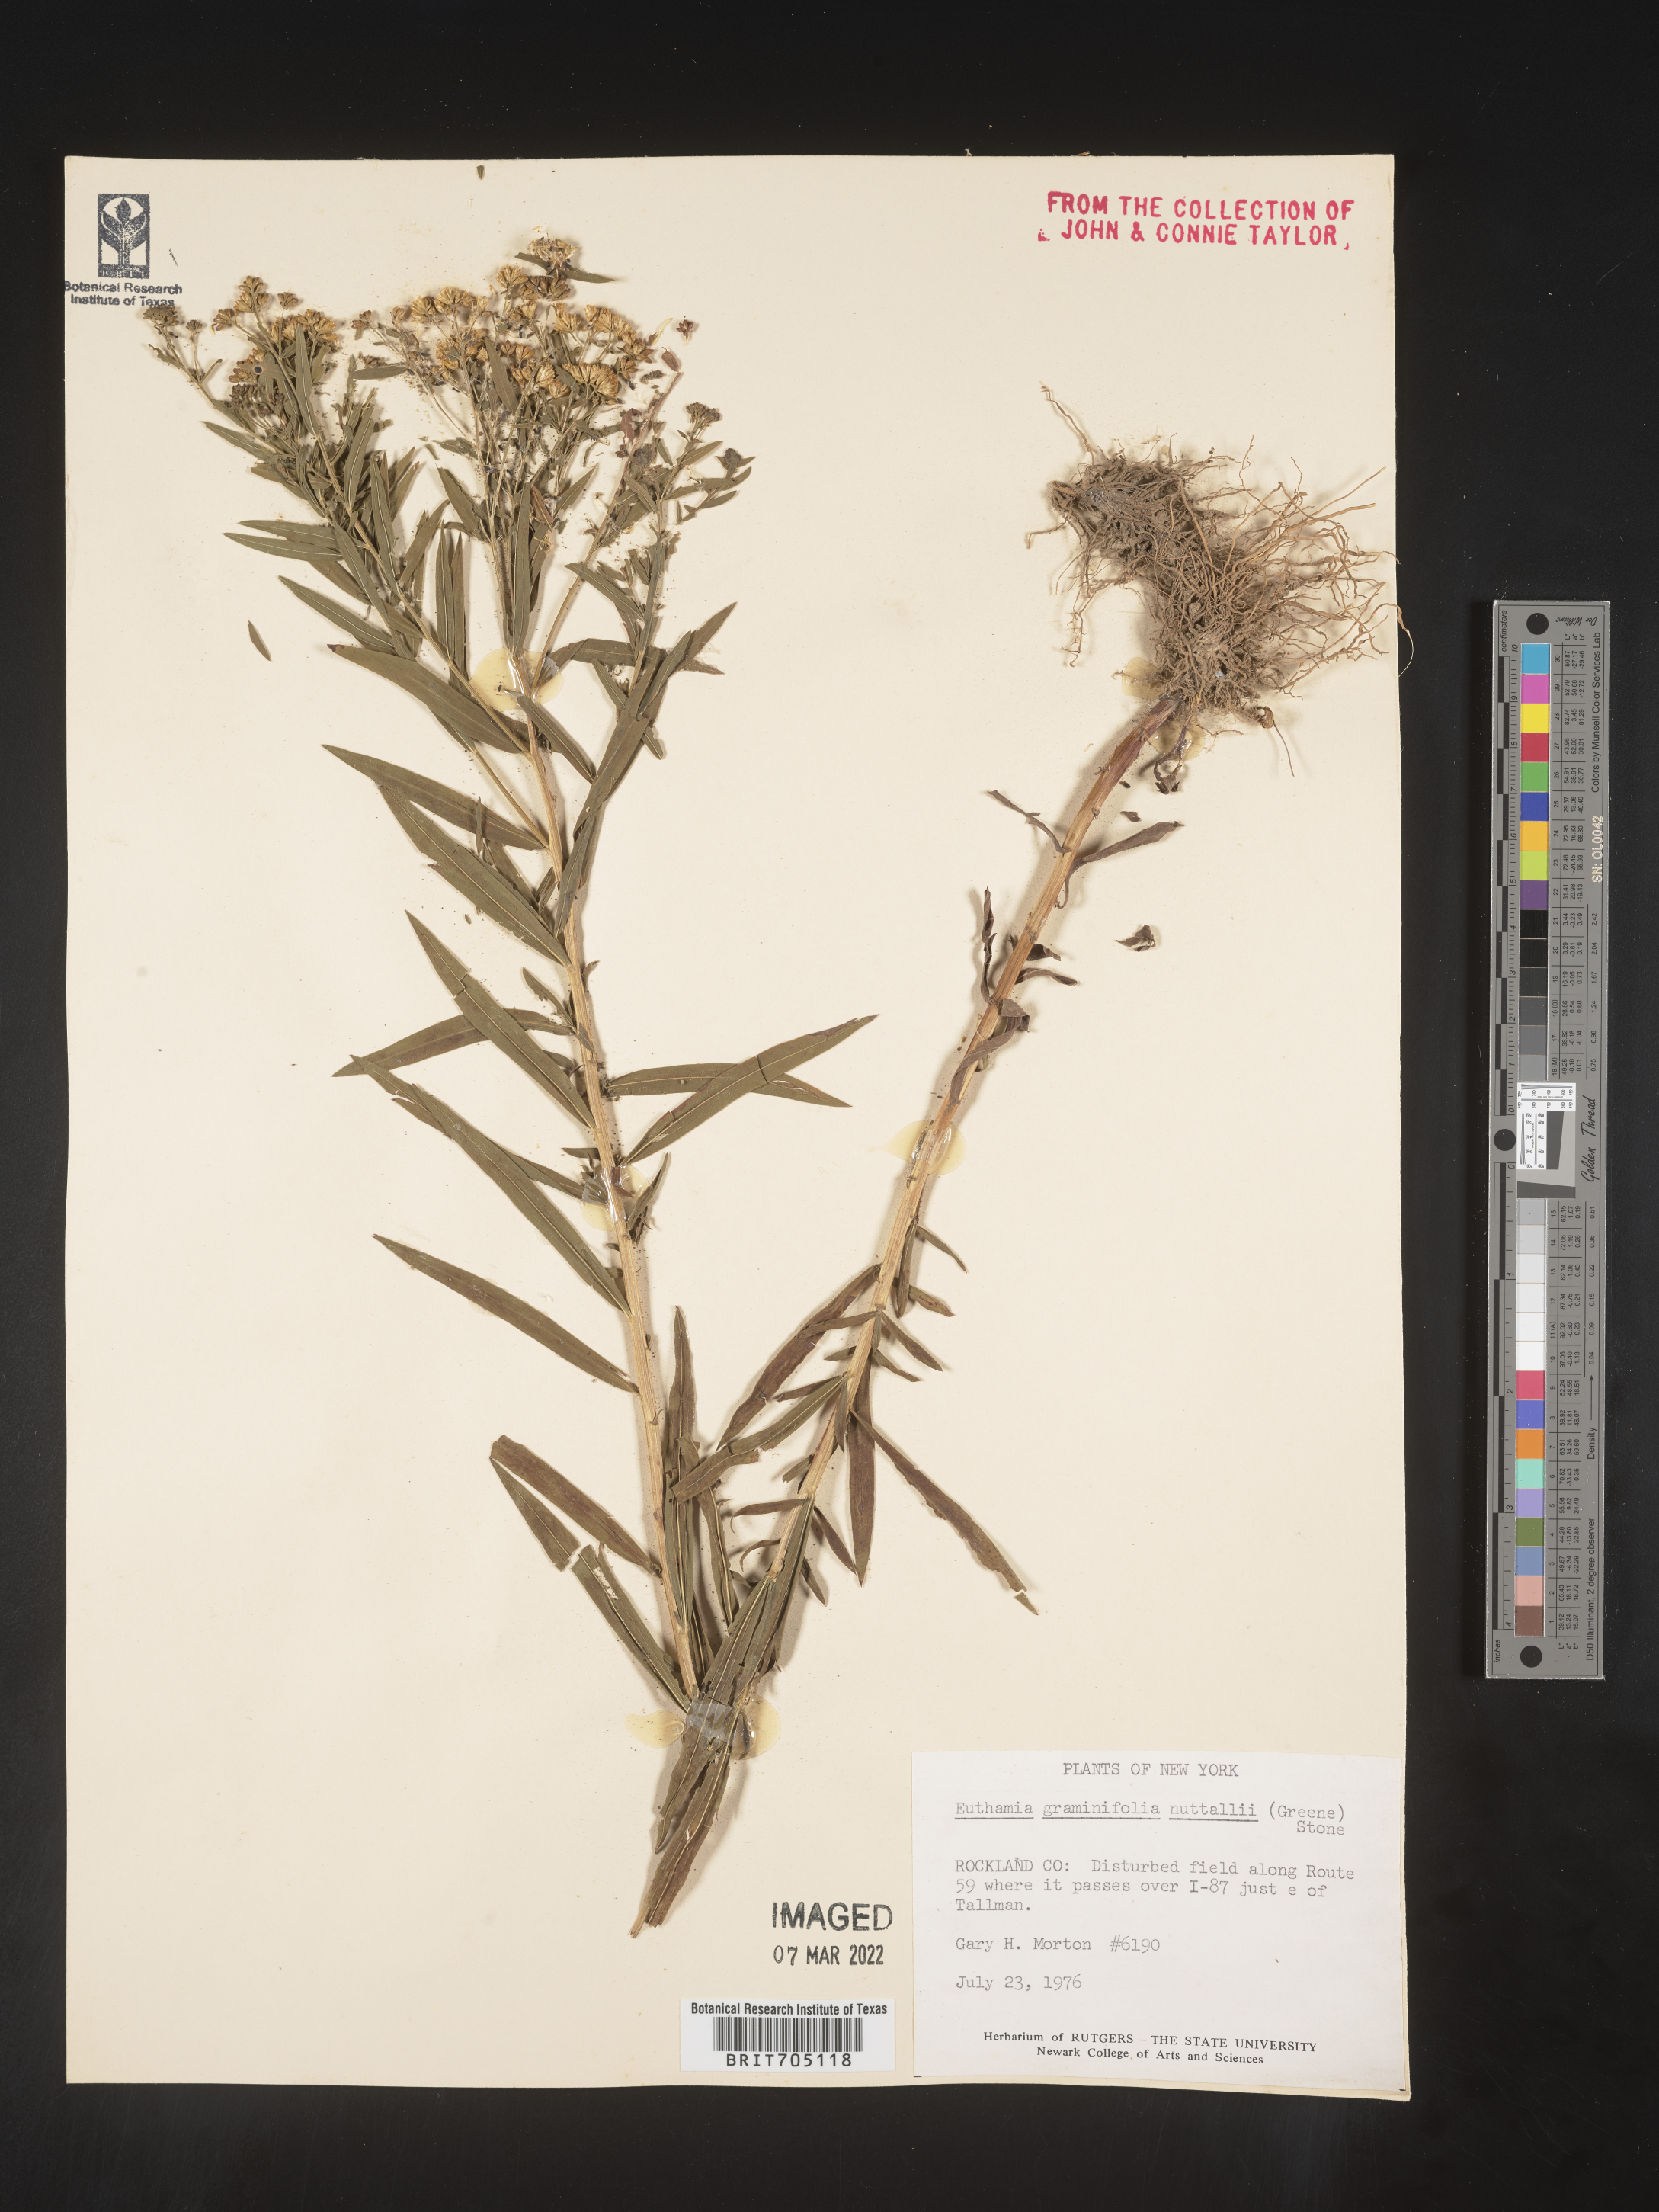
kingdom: Plantae
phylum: Tracheophyta
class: Magnoliopsida
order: Asterales
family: Asteraceae
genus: Euthamia
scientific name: Euthamia lanceolata
